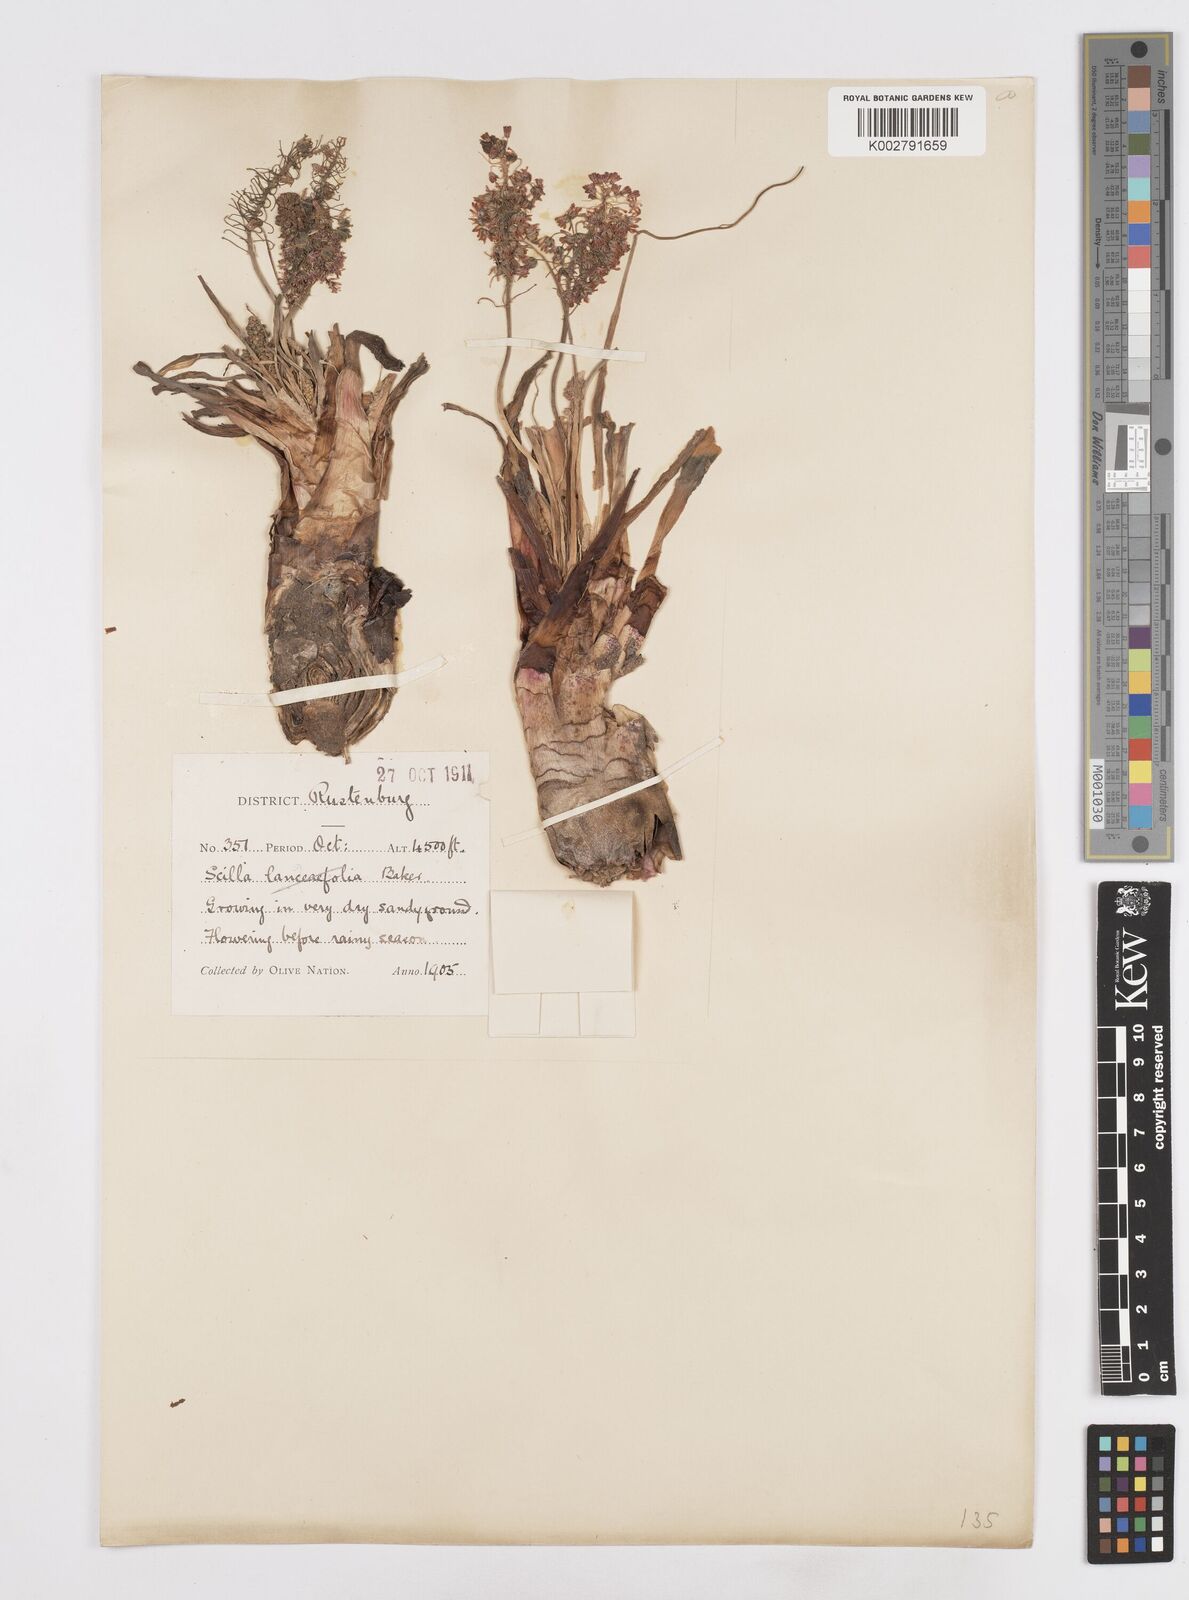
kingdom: Plantae
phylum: Tracheophyta
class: Liliopsida
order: Asparagales
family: Asparagaceae
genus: Scilla
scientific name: Scilla
